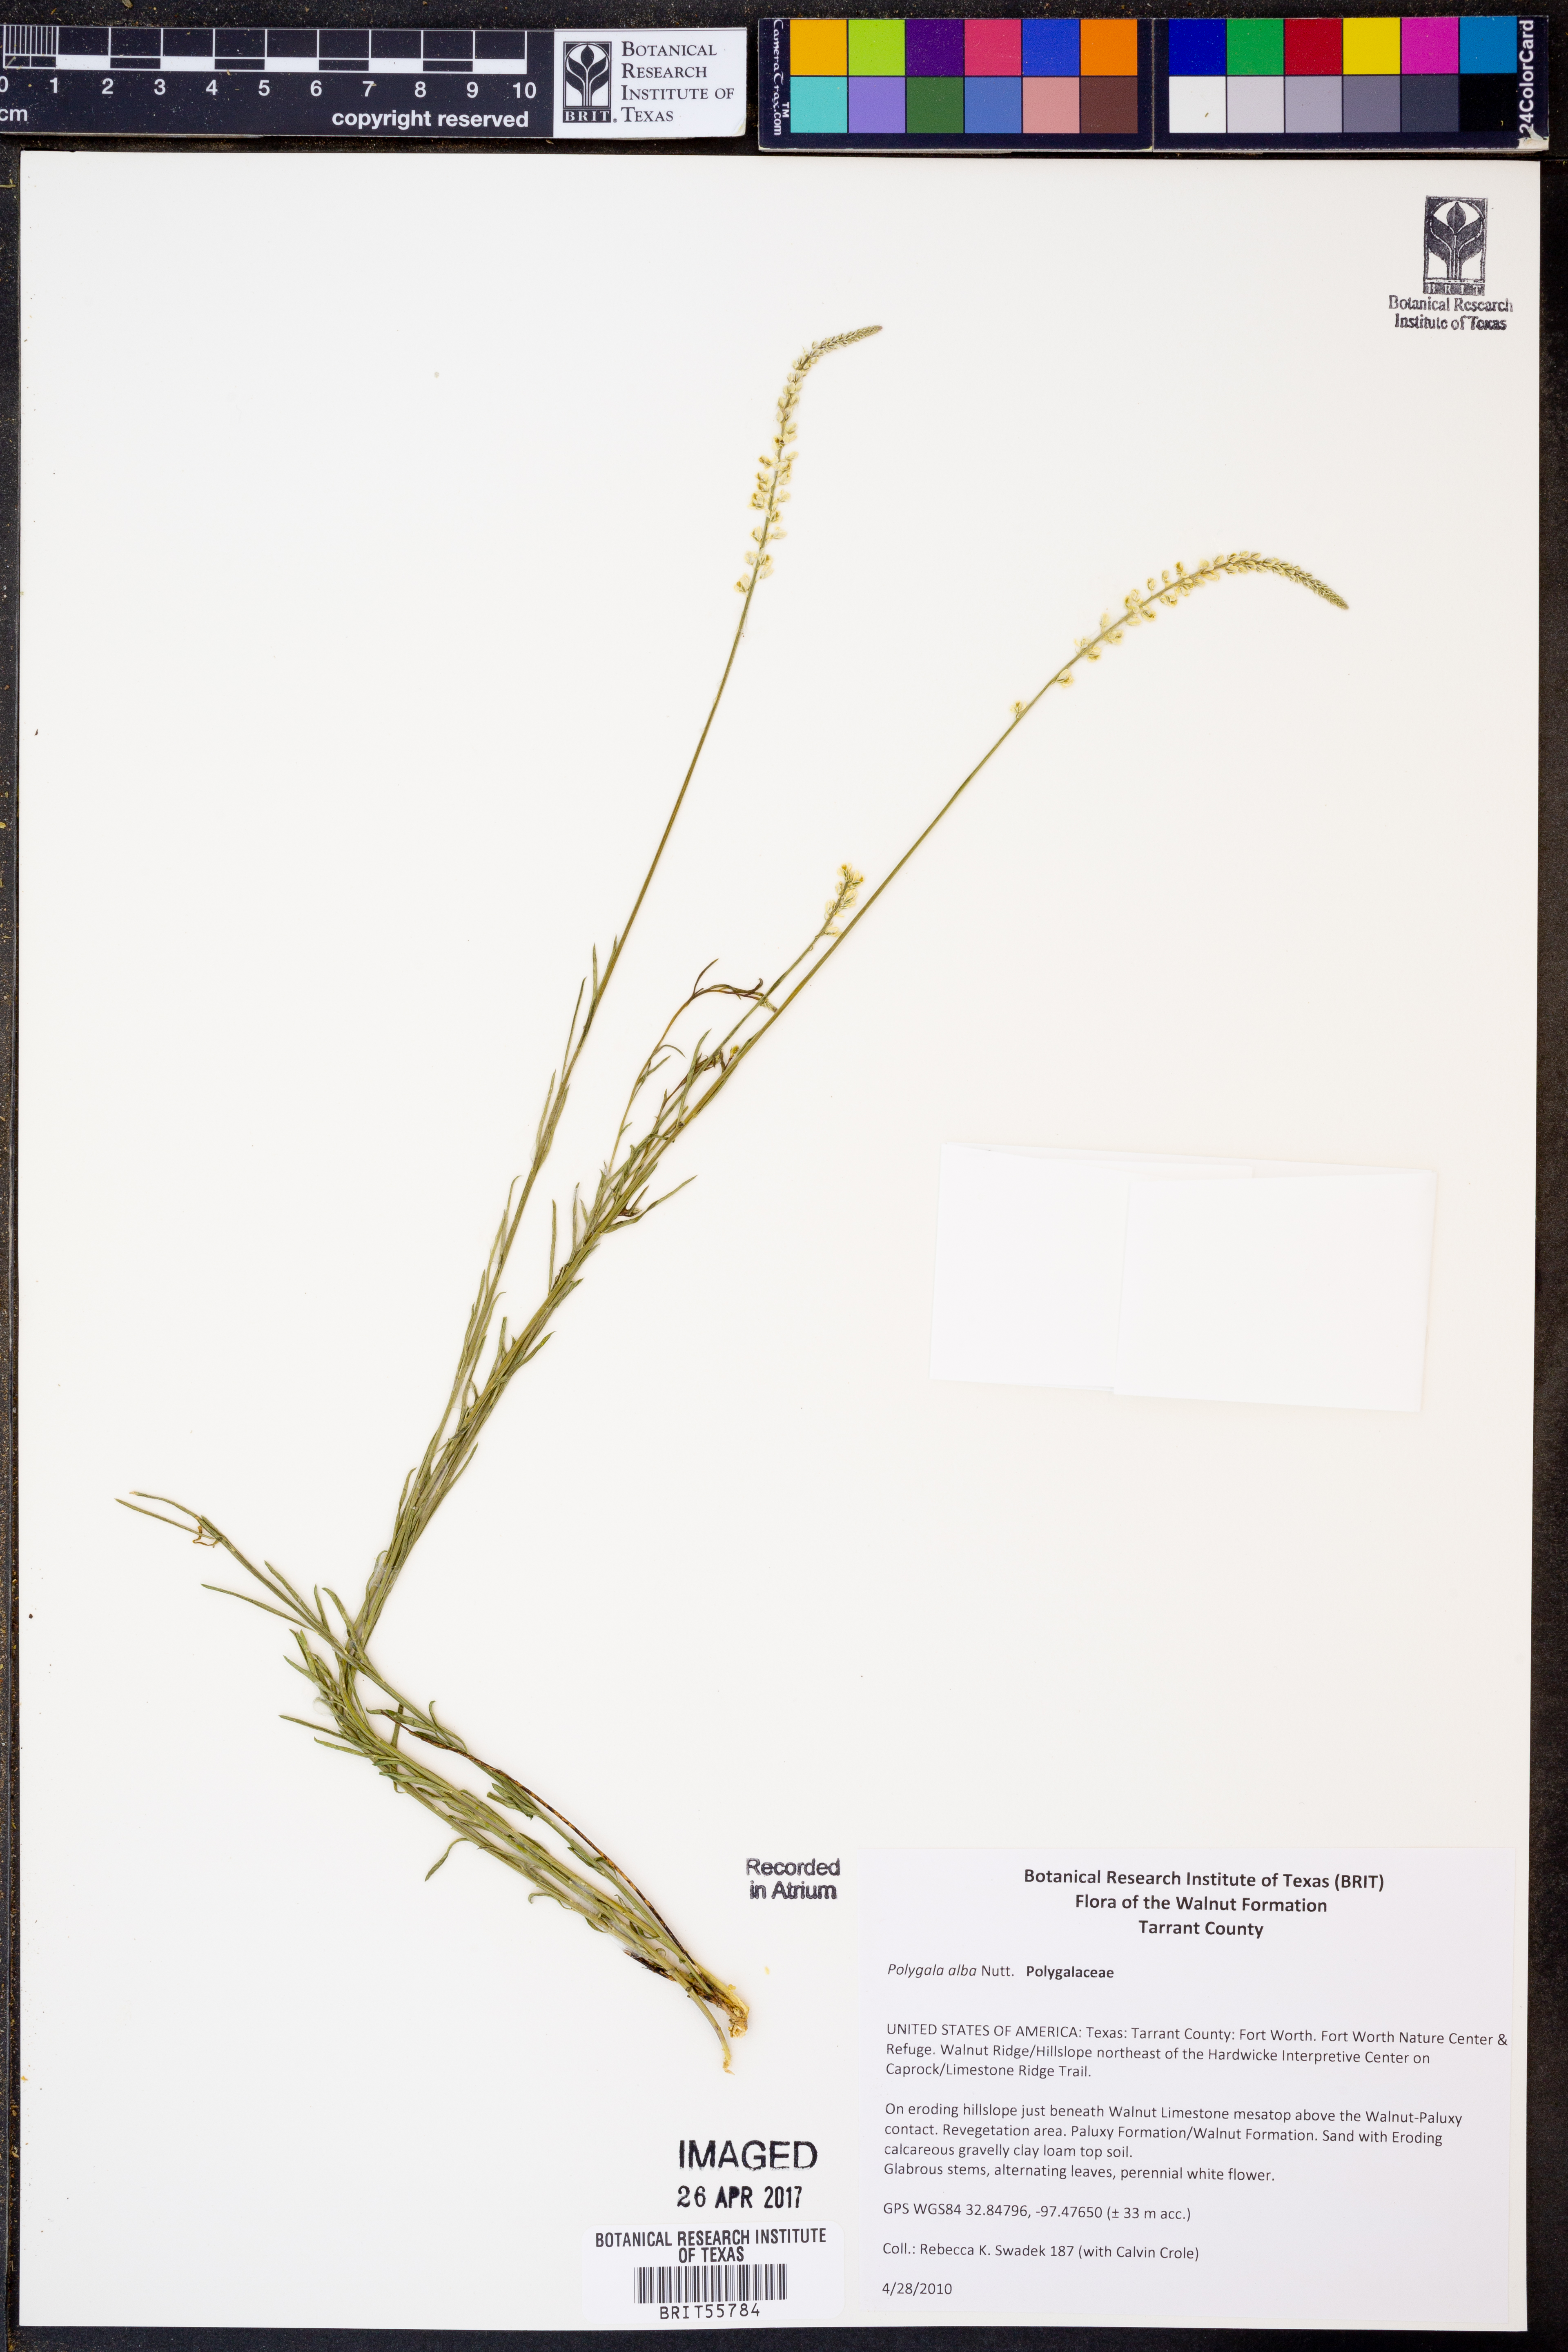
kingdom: Plantae
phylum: Tracheophyta
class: Magnoliopsida
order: Fabales
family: Polygalaceae
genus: Polygala
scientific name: Polygala alba
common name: White milkwort
